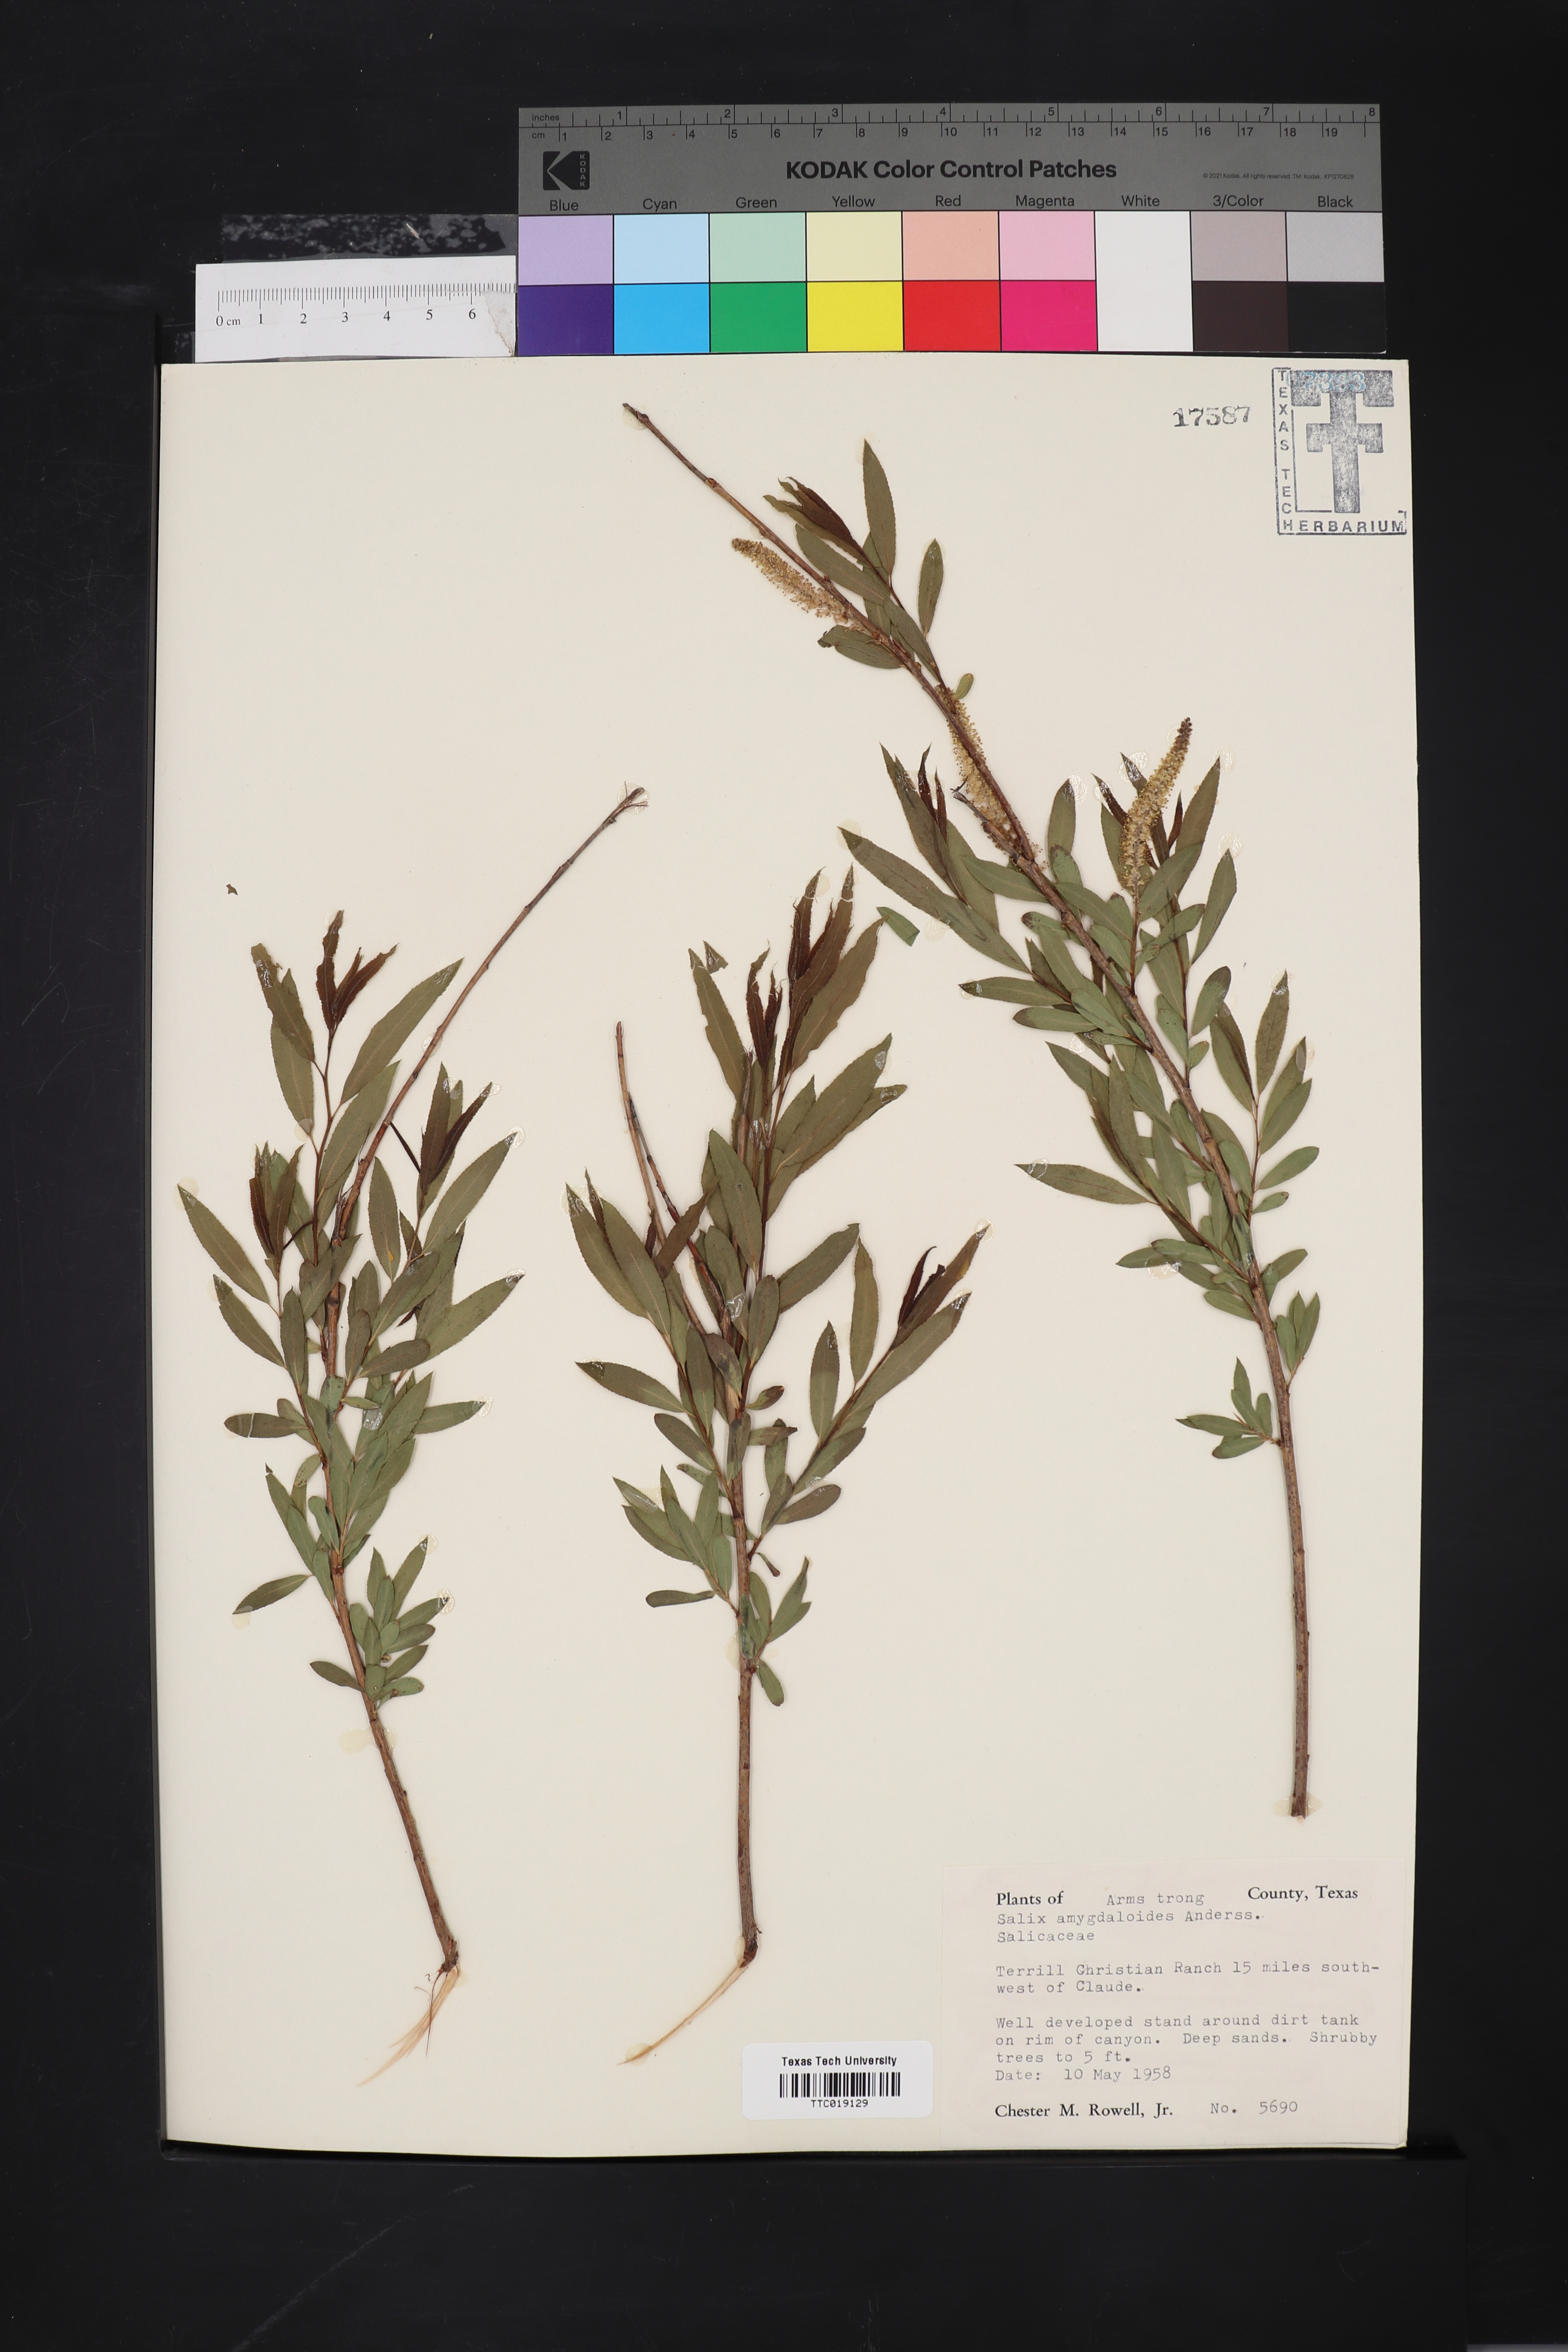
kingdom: Plantae
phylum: Tracheophyta
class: Magnoliopsida
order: Malpighiales
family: Salicaceae
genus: Salix
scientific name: Salix amygdaloides
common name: Peach leaf willow
